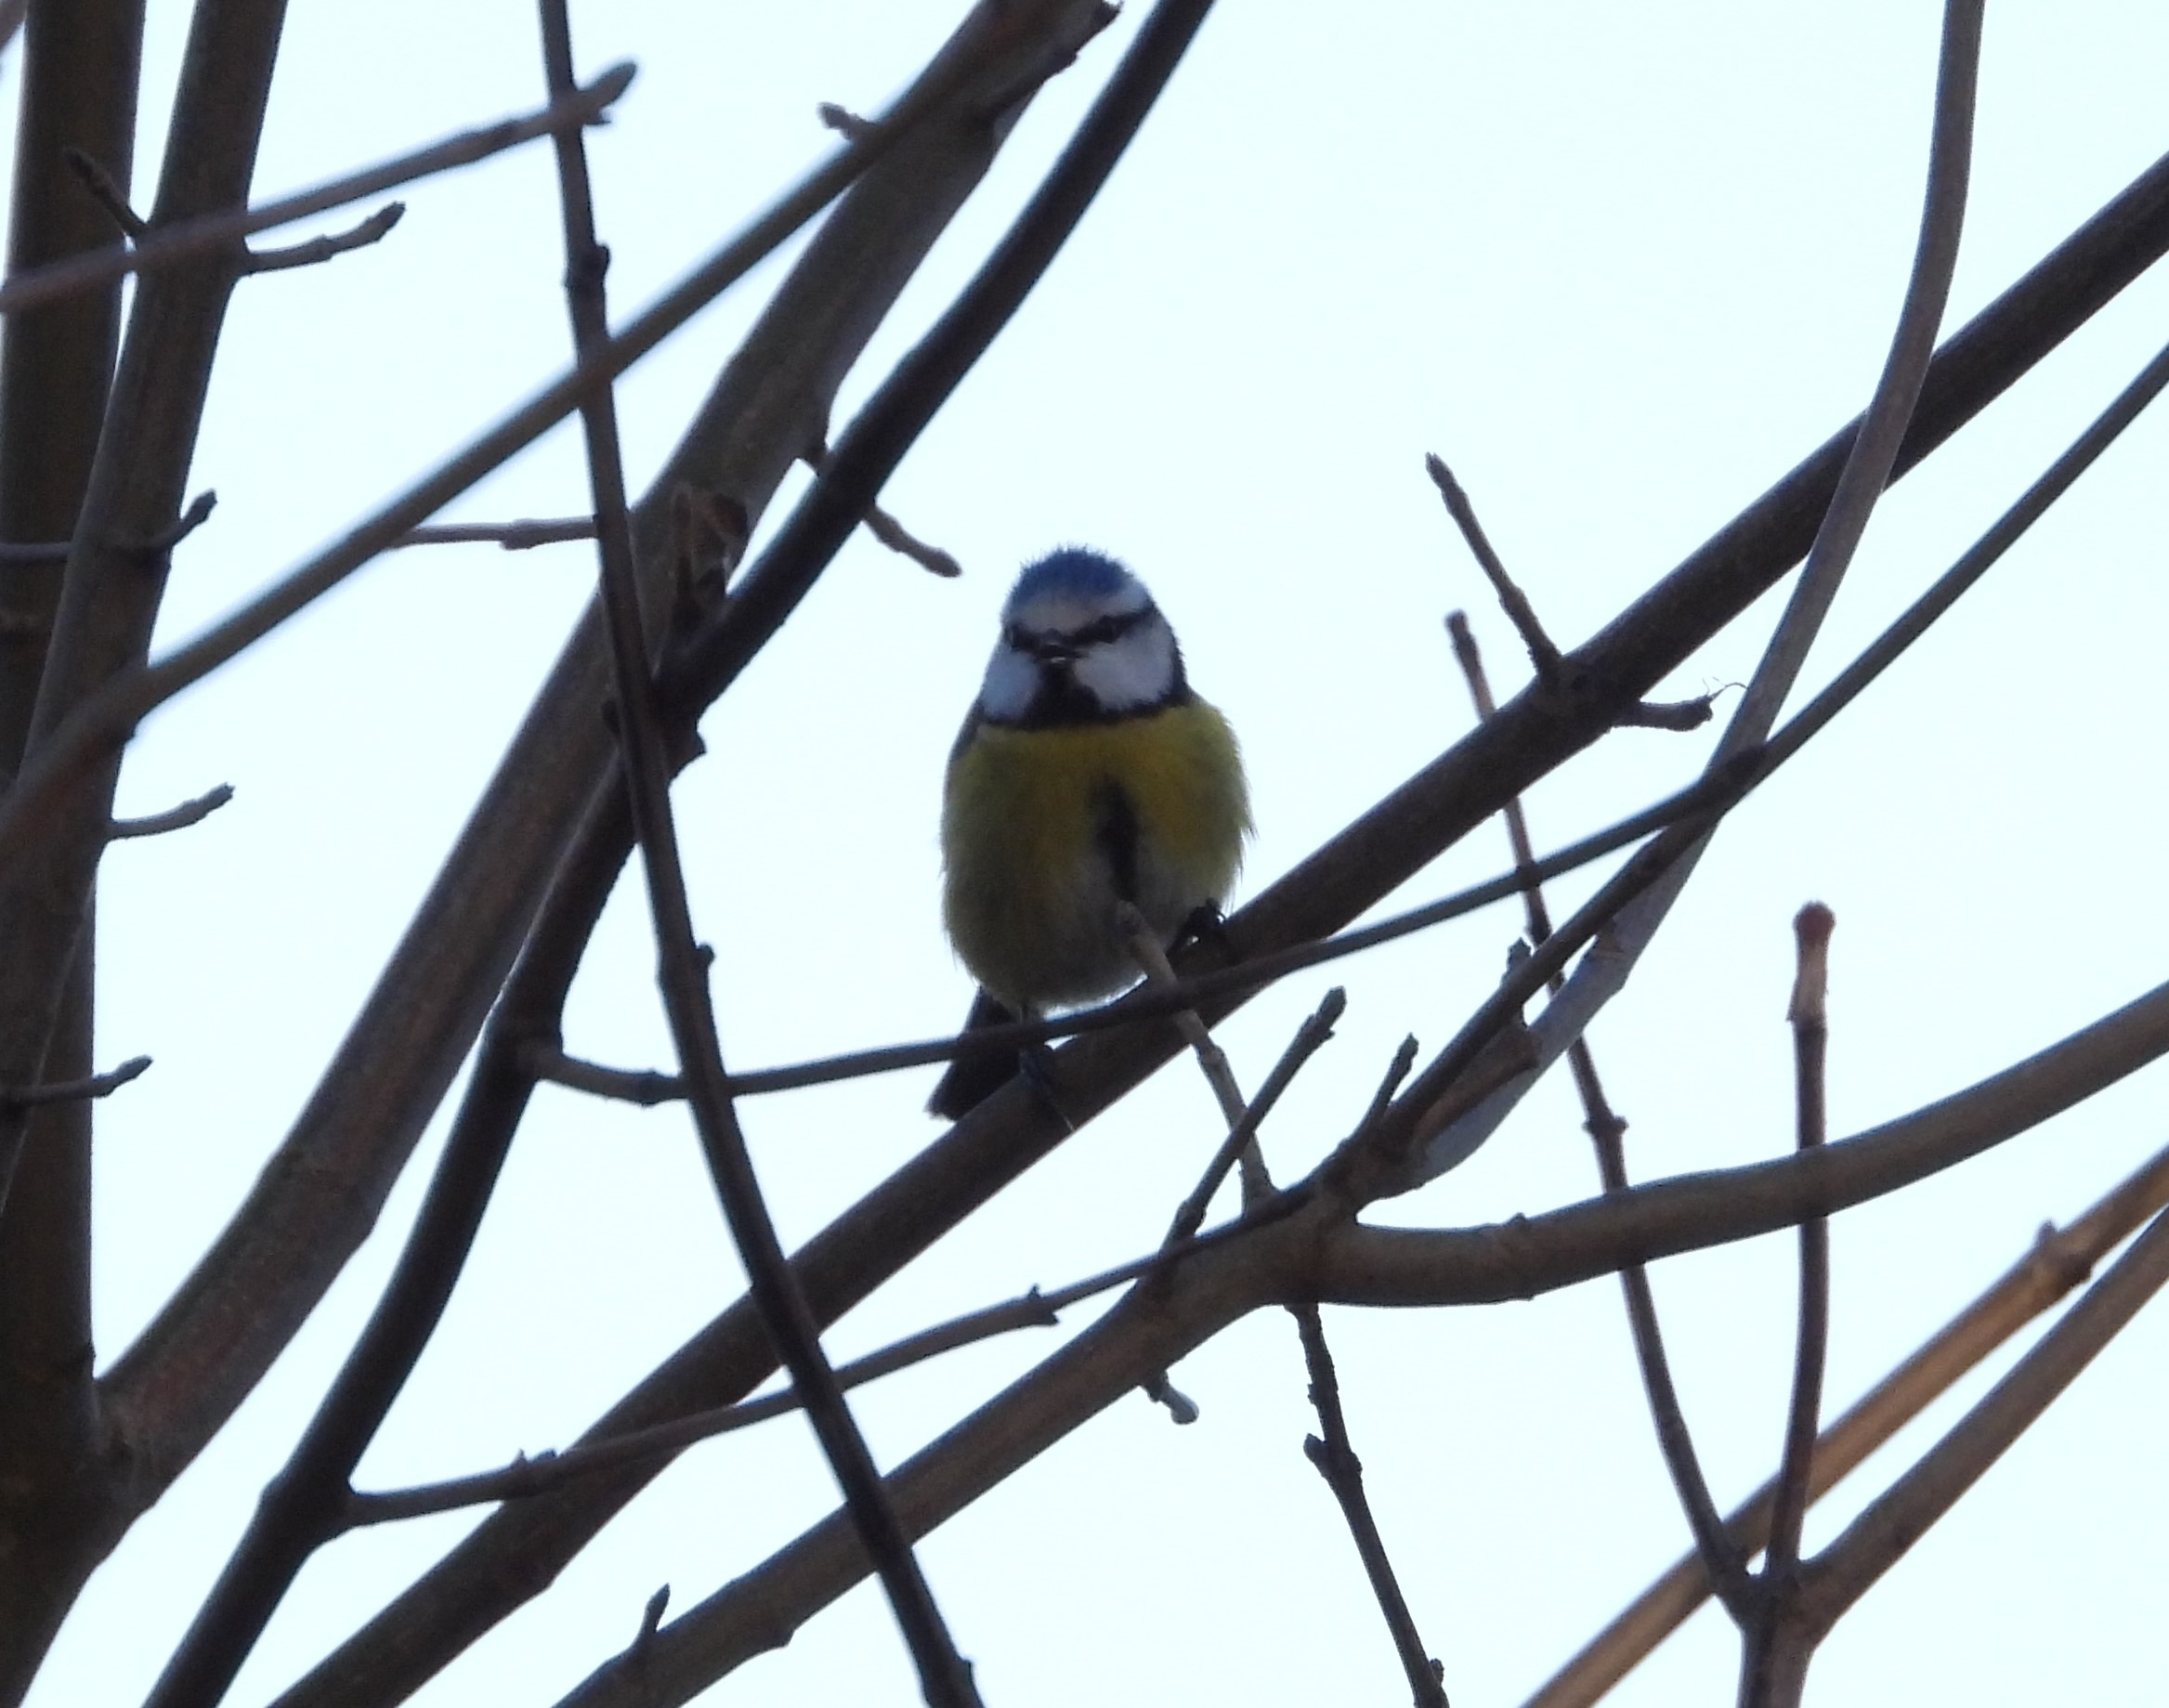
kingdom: Animalia
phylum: Chordata
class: Aves
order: Passeriformes
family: Paridae
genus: Cyanistes
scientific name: Cyanistes caeruleus
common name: Blåmejse
